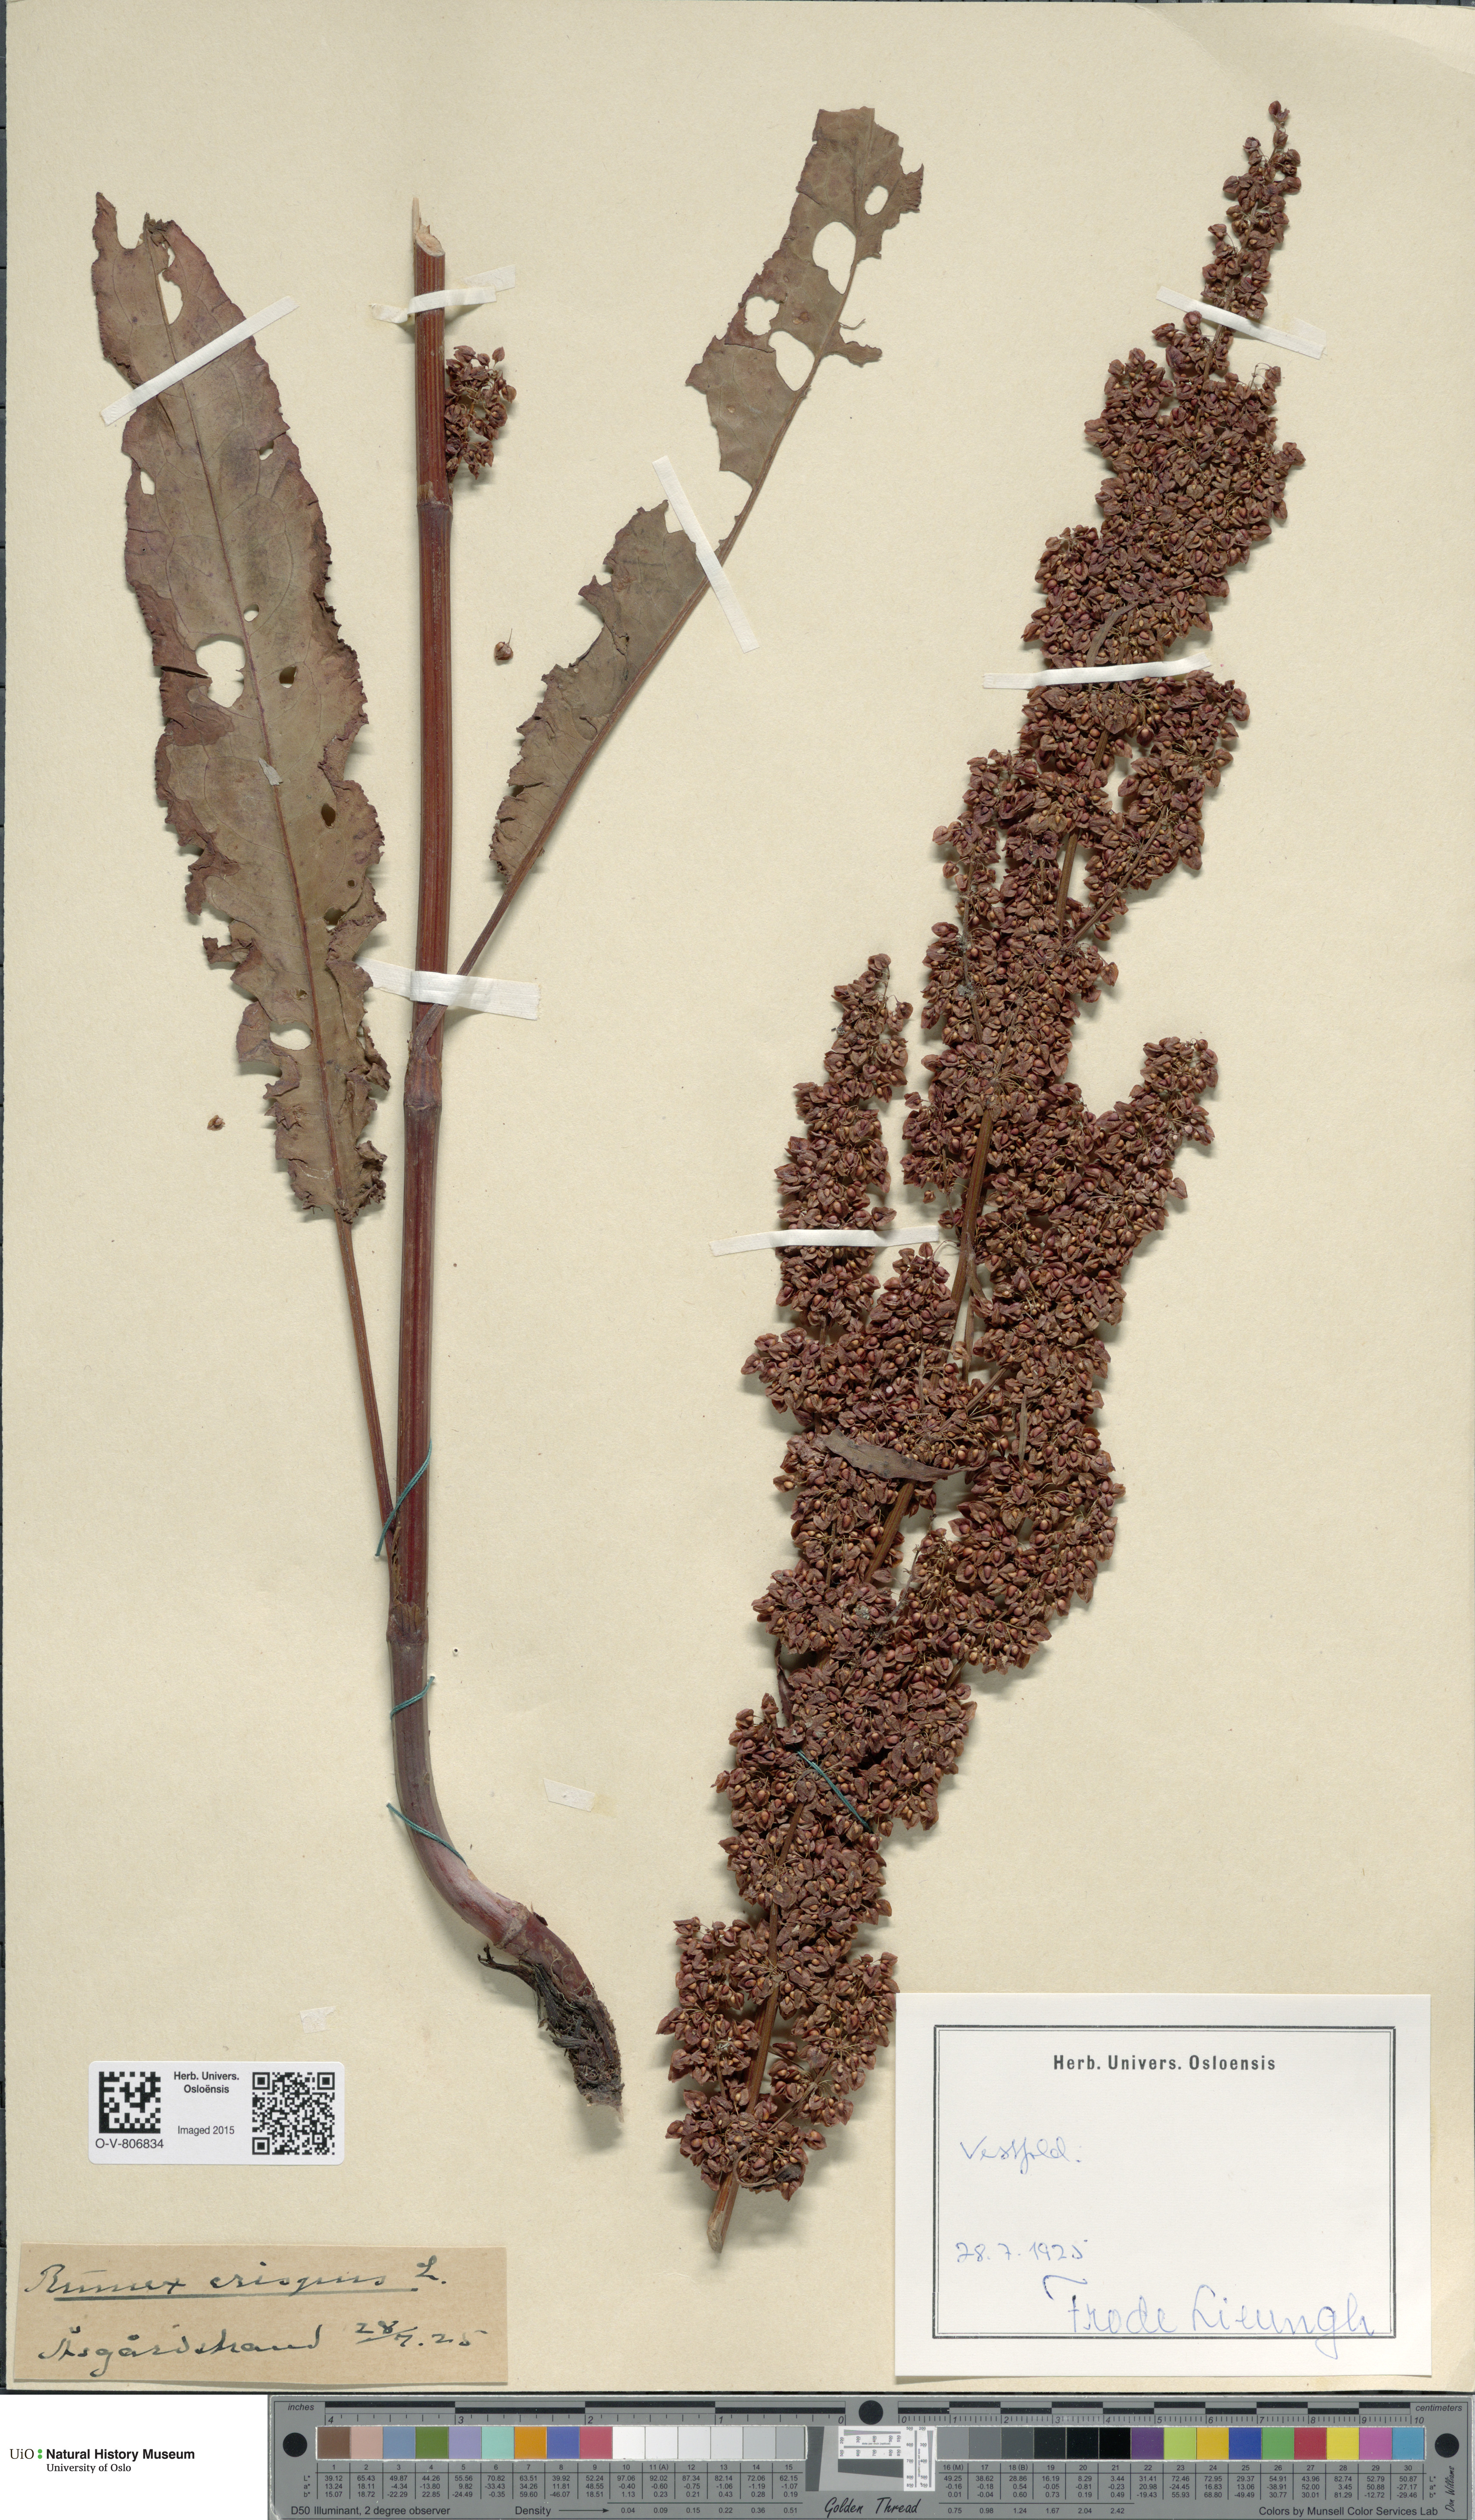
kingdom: Plantae
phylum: Tracheophyta
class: Magnoliopsida
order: Caryophyllales
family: Polygonaceae
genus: Rumex
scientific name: Rumex crispus
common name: Curled dock
